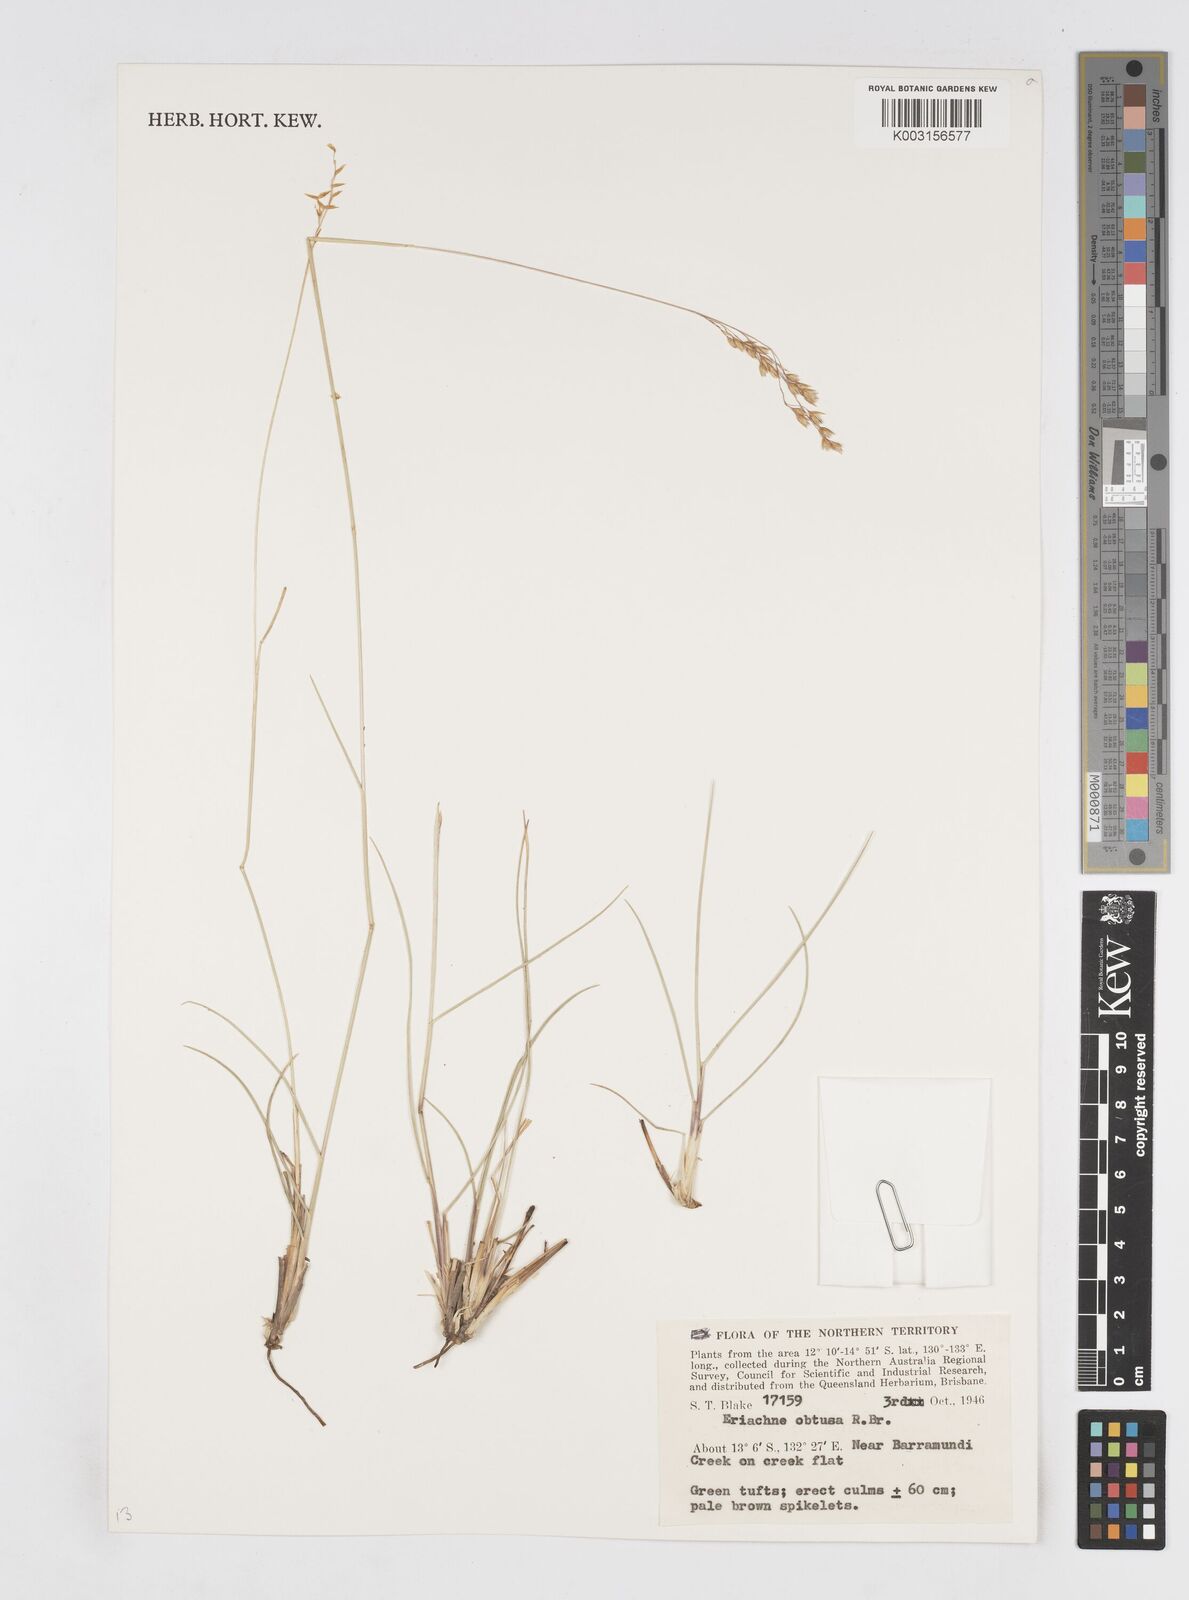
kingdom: Plantae
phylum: Tracheophyta
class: Liliopsida
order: Poales
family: Poaceae
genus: Eriachne
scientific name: Eriachne obtusa
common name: Northern wanderrie grass
